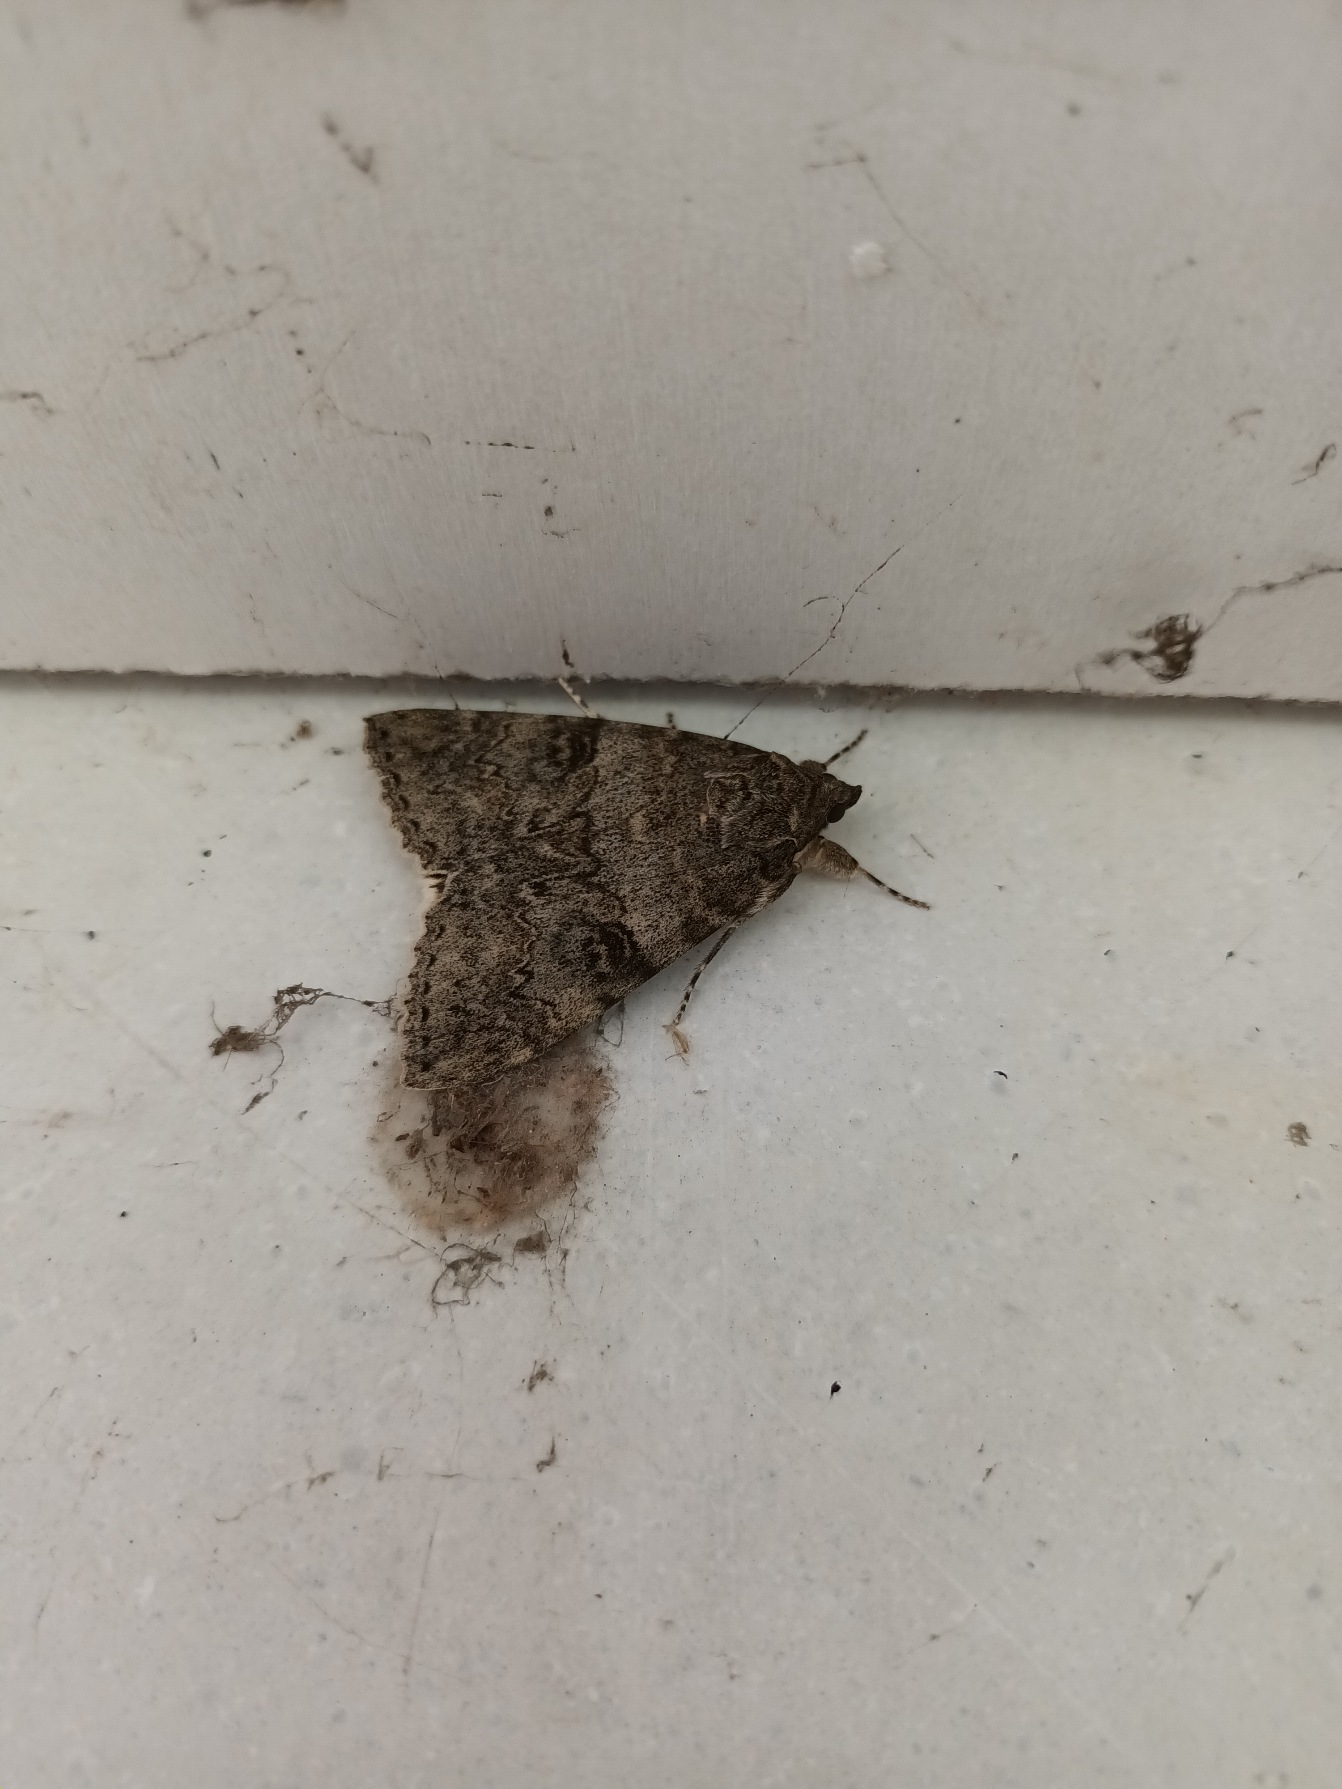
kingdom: Animalia
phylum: Arthropoda
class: Insecta
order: Lepidoptera
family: Erebidae
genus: Catocala
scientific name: Catocala nupta
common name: Rødt ordensbånd
